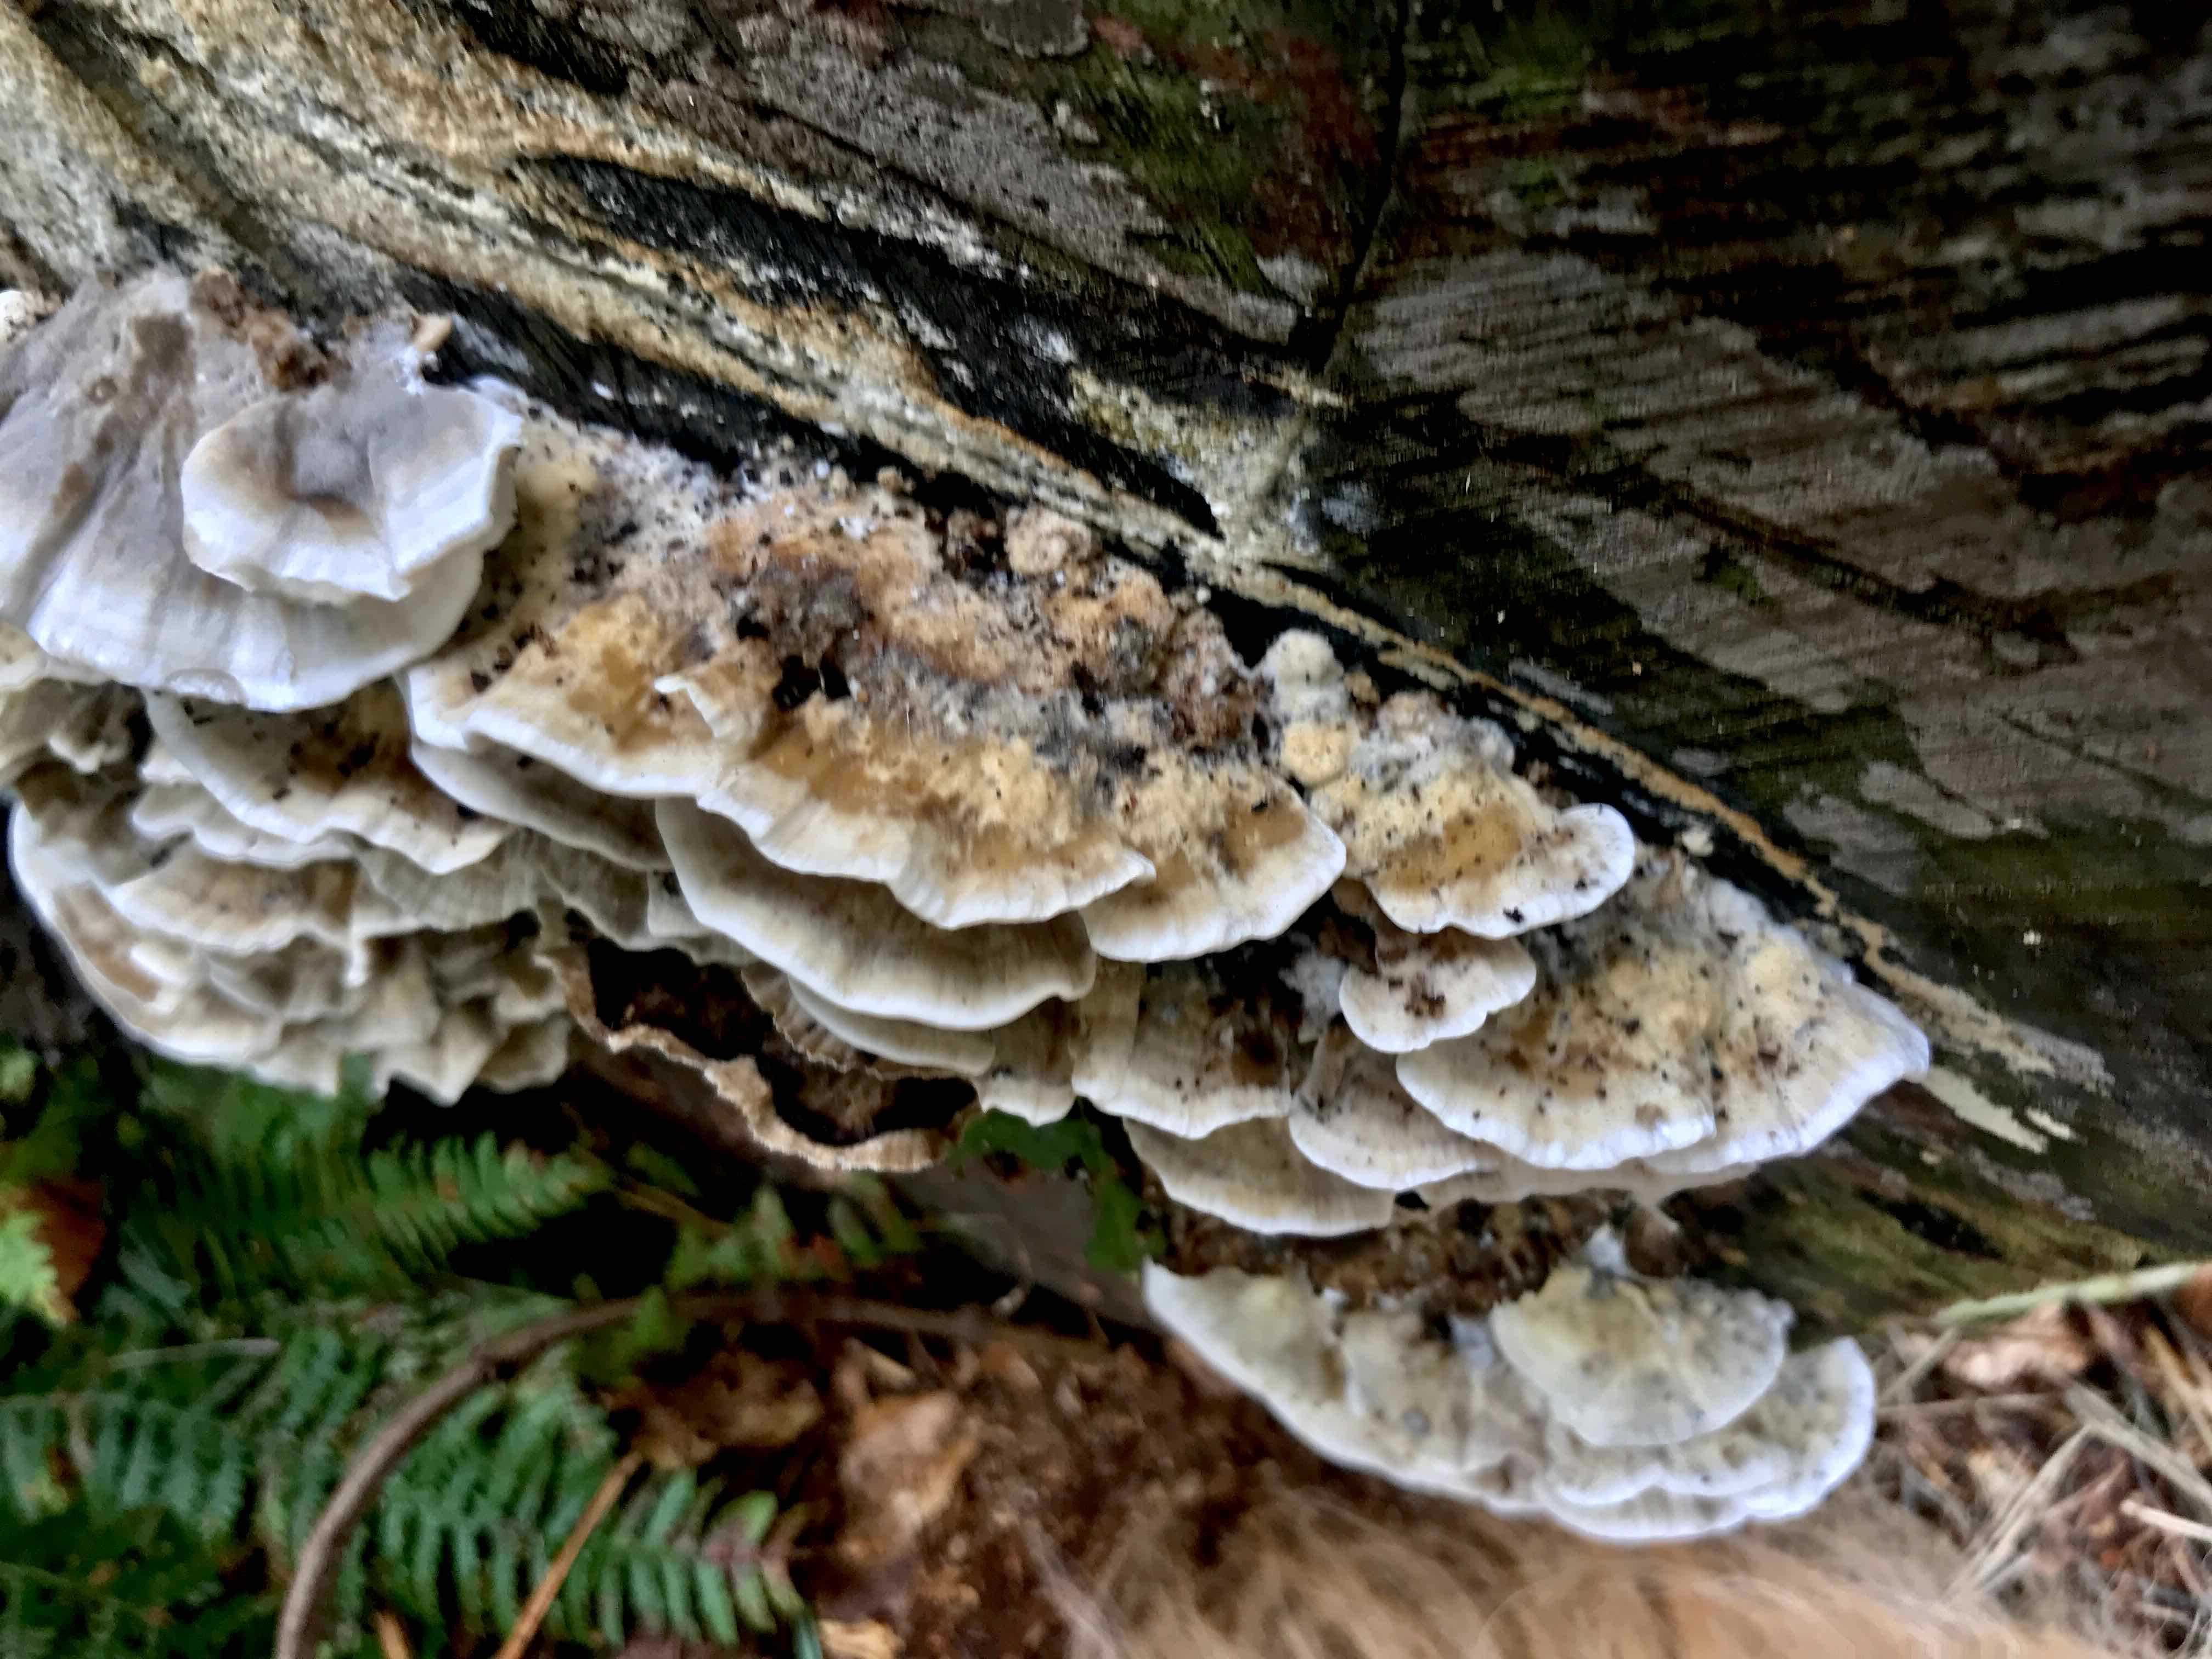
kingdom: Fungi
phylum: Basidiomycota
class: Agaricomycetes
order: Polyporales
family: Phanerochaetaceae
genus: Bjerkandera
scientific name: Bjerkandera adusta
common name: sveden sodporesvamp
